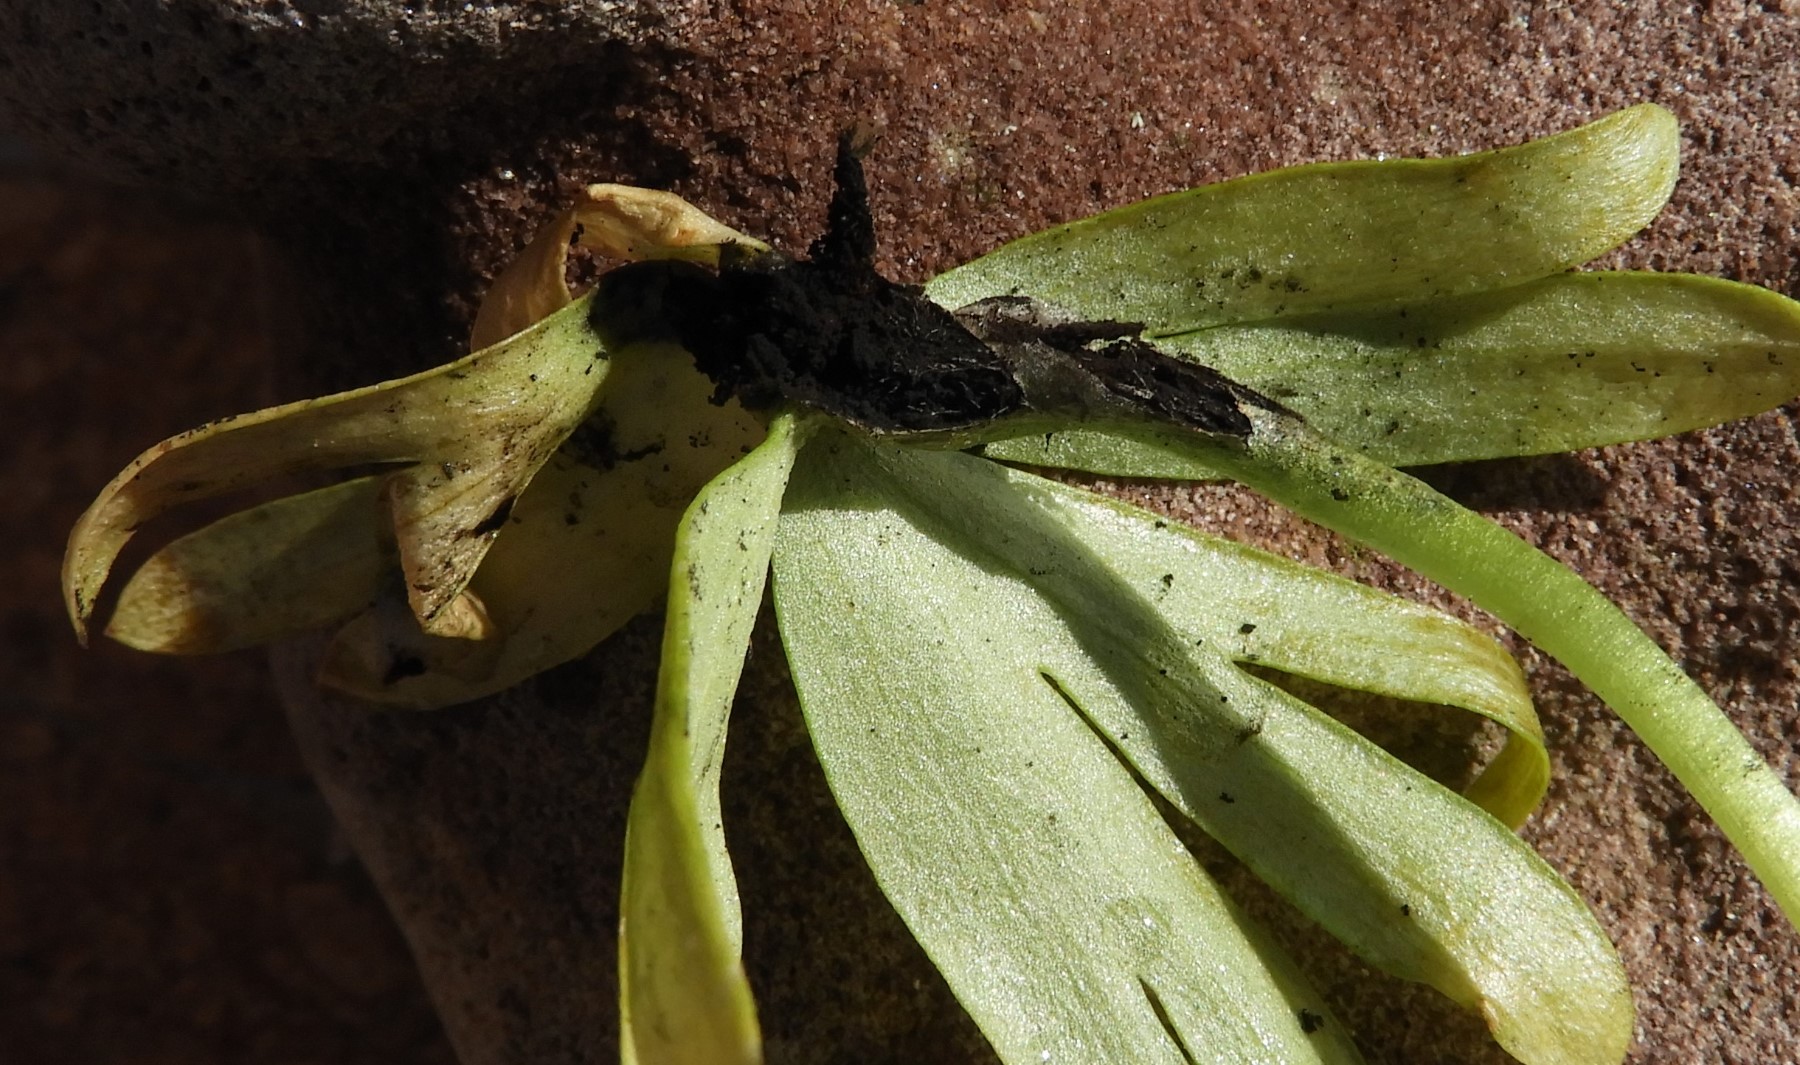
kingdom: Fungi
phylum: Basidiomycota
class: Ustilaginomycetes
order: Urocystidales
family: Urocystidaceae
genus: Urocystis
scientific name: Urocystis eranthidis
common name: erantis-brand
